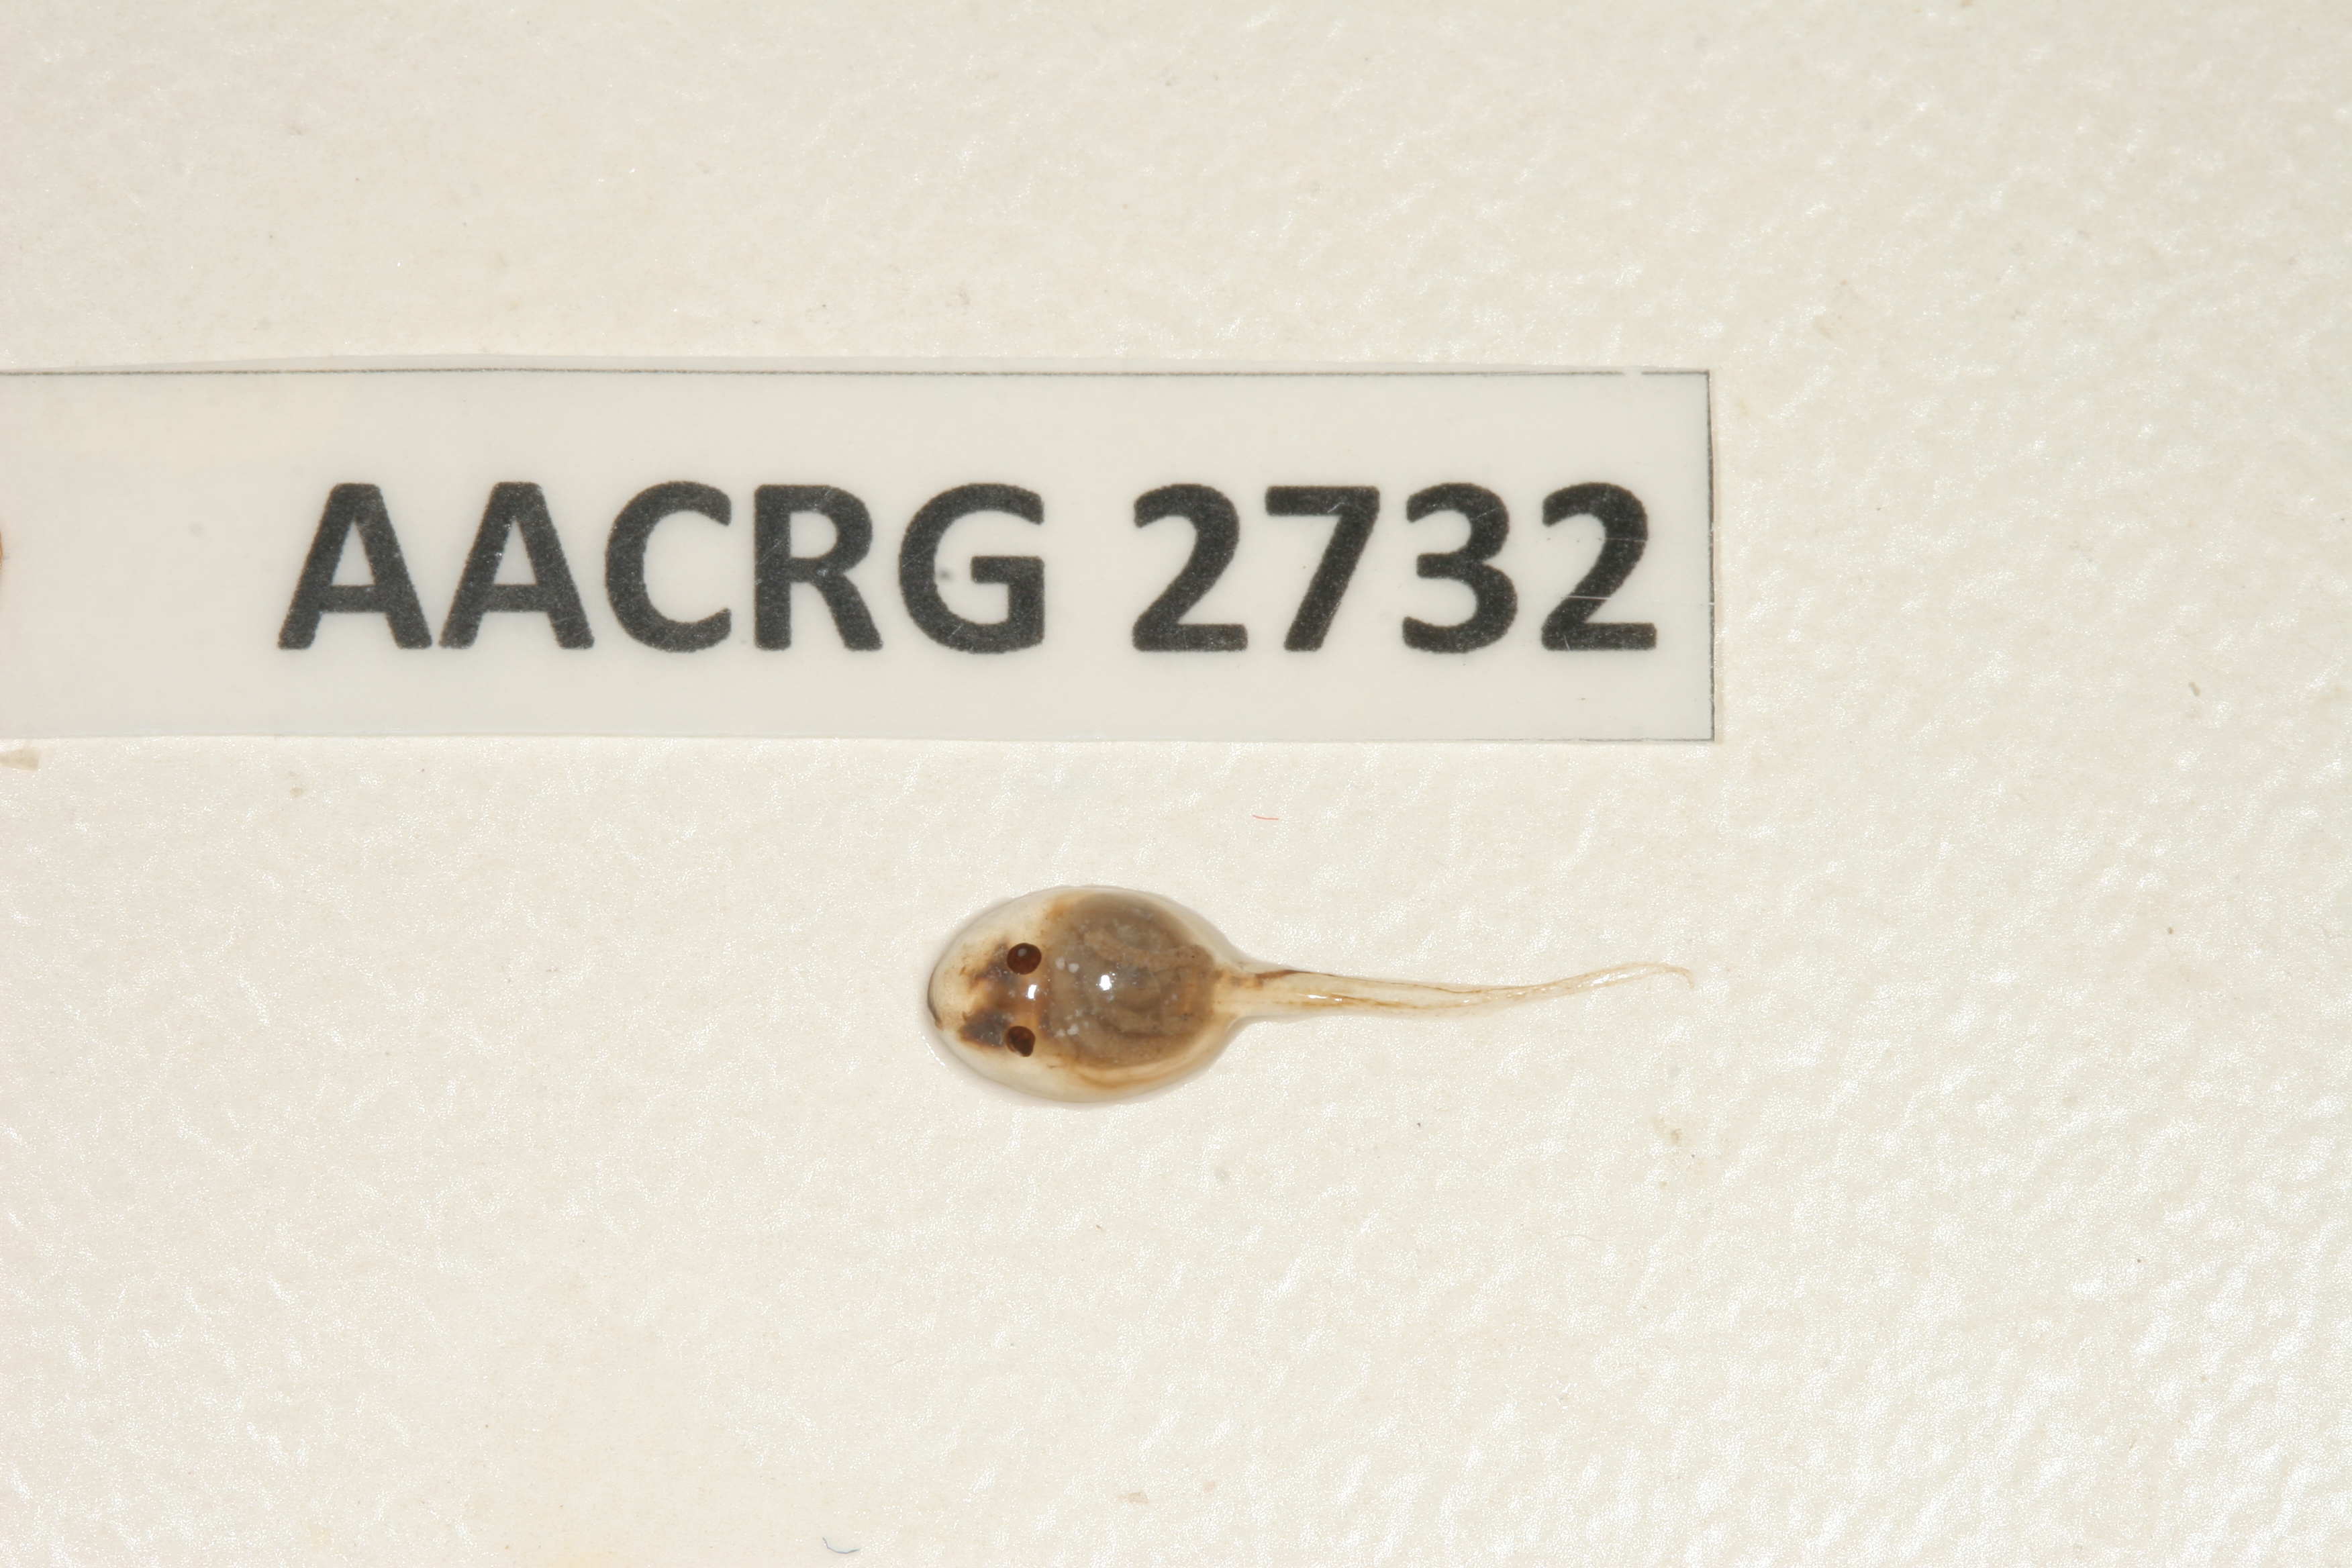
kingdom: Animalia
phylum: Chordata
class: Amphibia
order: Anura
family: Pyxicephalidae
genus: Tomopterna
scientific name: Tomopterna delalandii
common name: Delalande's burrowing bullfrog
